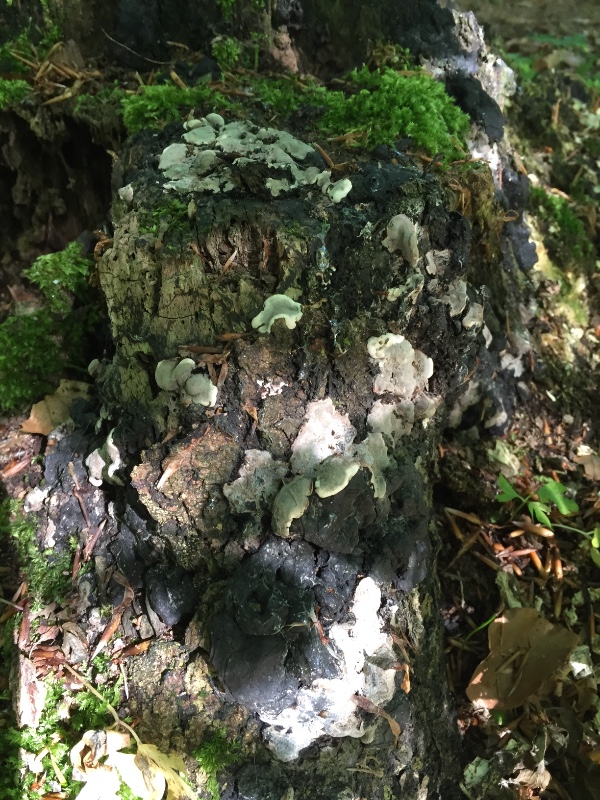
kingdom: Fungi
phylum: Ascomycota
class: Sordariomycetes
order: Xylariales
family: Xylariaceae
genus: Kretzschmaria
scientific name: Kretzschmaria deusta
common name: stor kulsvamp
